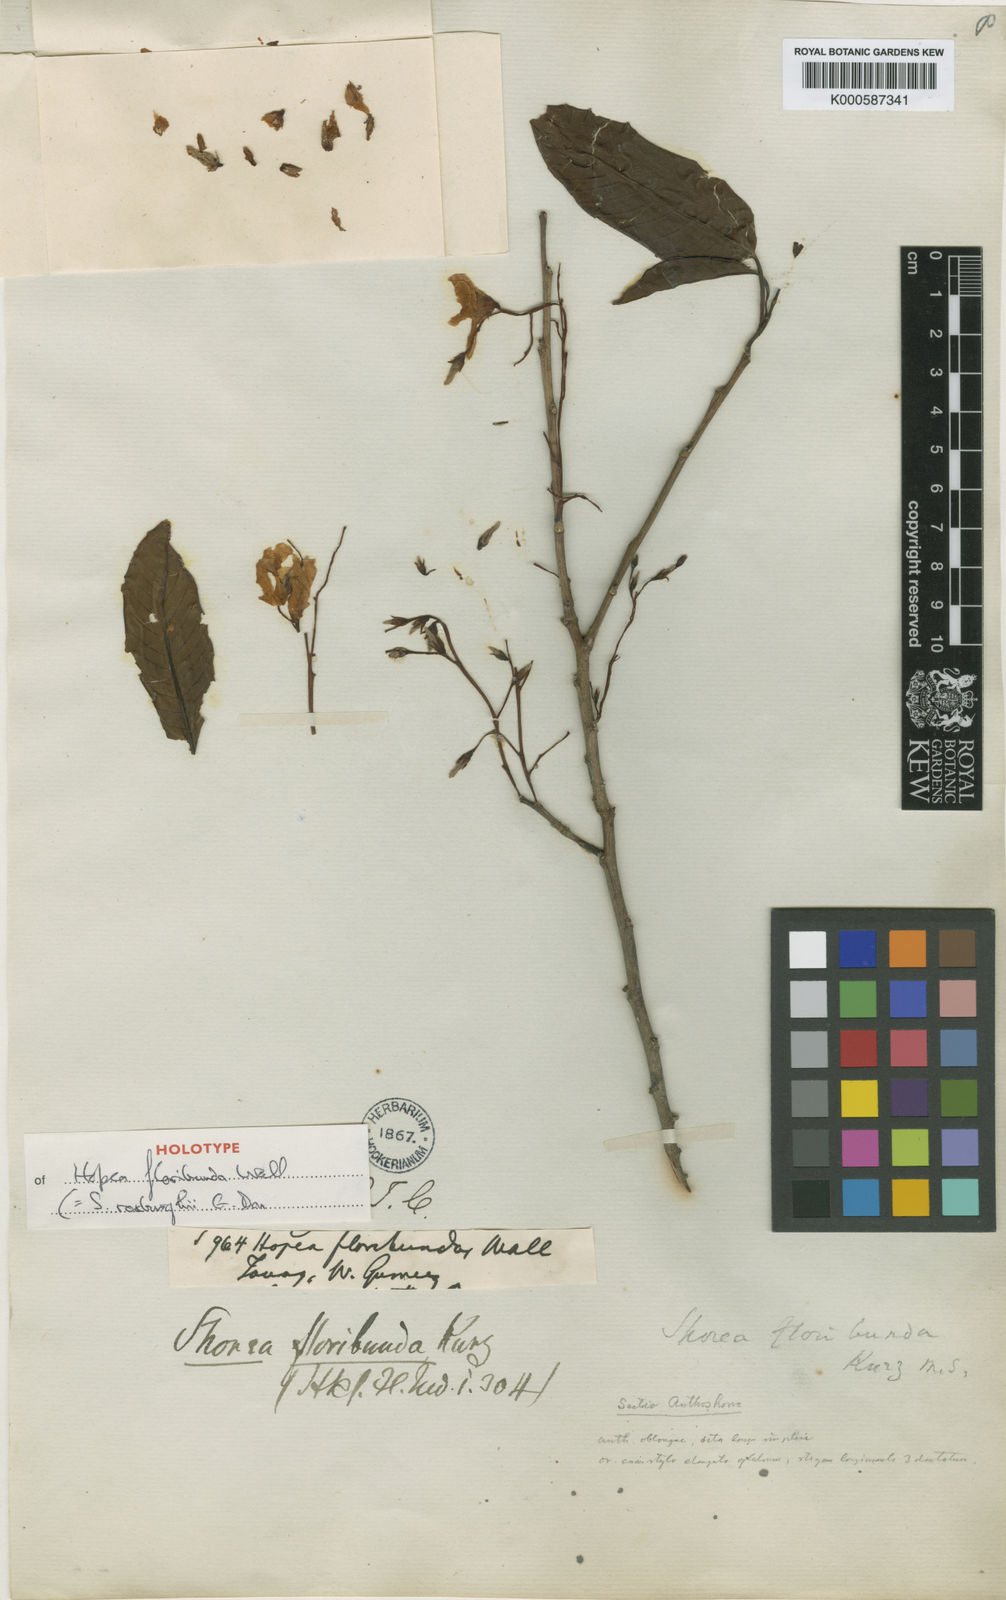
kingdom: Plantae
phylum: Tracheophyta
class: Magnoliopsida
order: Malvales
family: Dipterocarpaceae
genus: Anthoshorea
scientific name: Anthoshorea roxburghii
